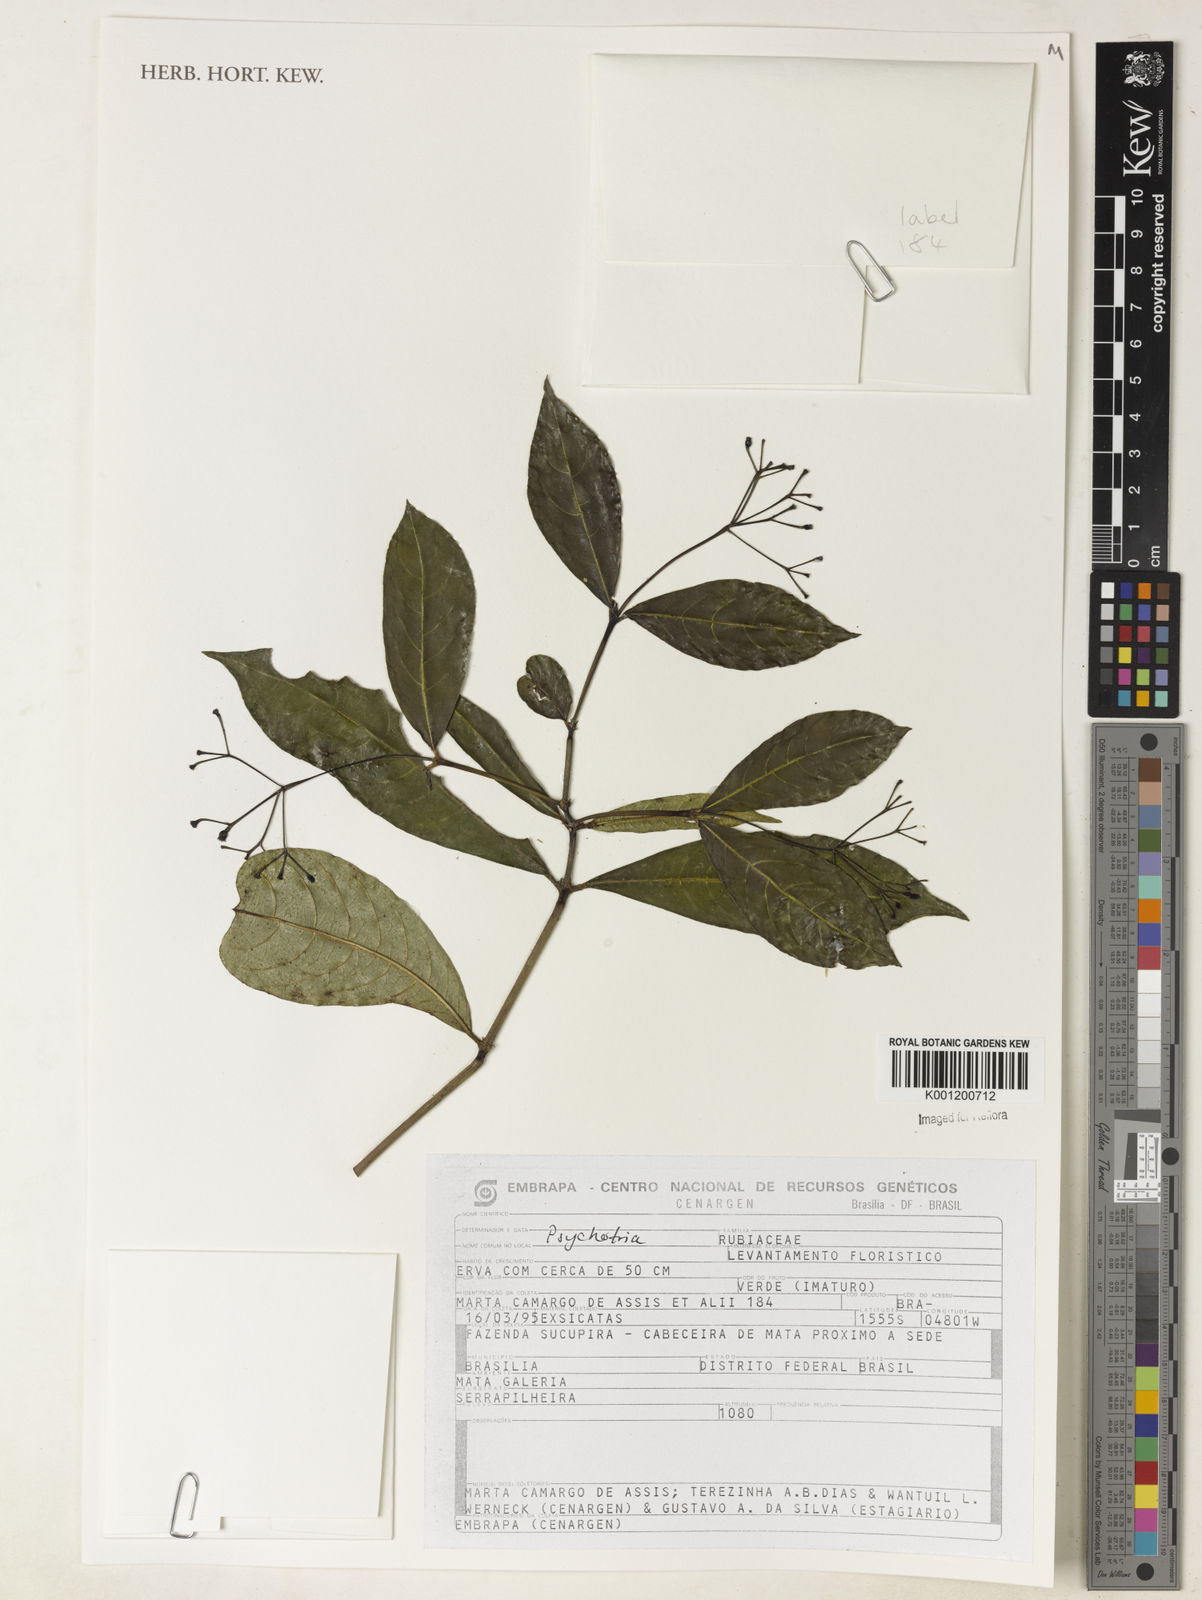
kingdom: Plantae
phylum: Tracheophyta
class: Magnoliopsida
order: Gentianales
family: Rubiaceae
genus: Psychotria
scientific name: Psychotria
